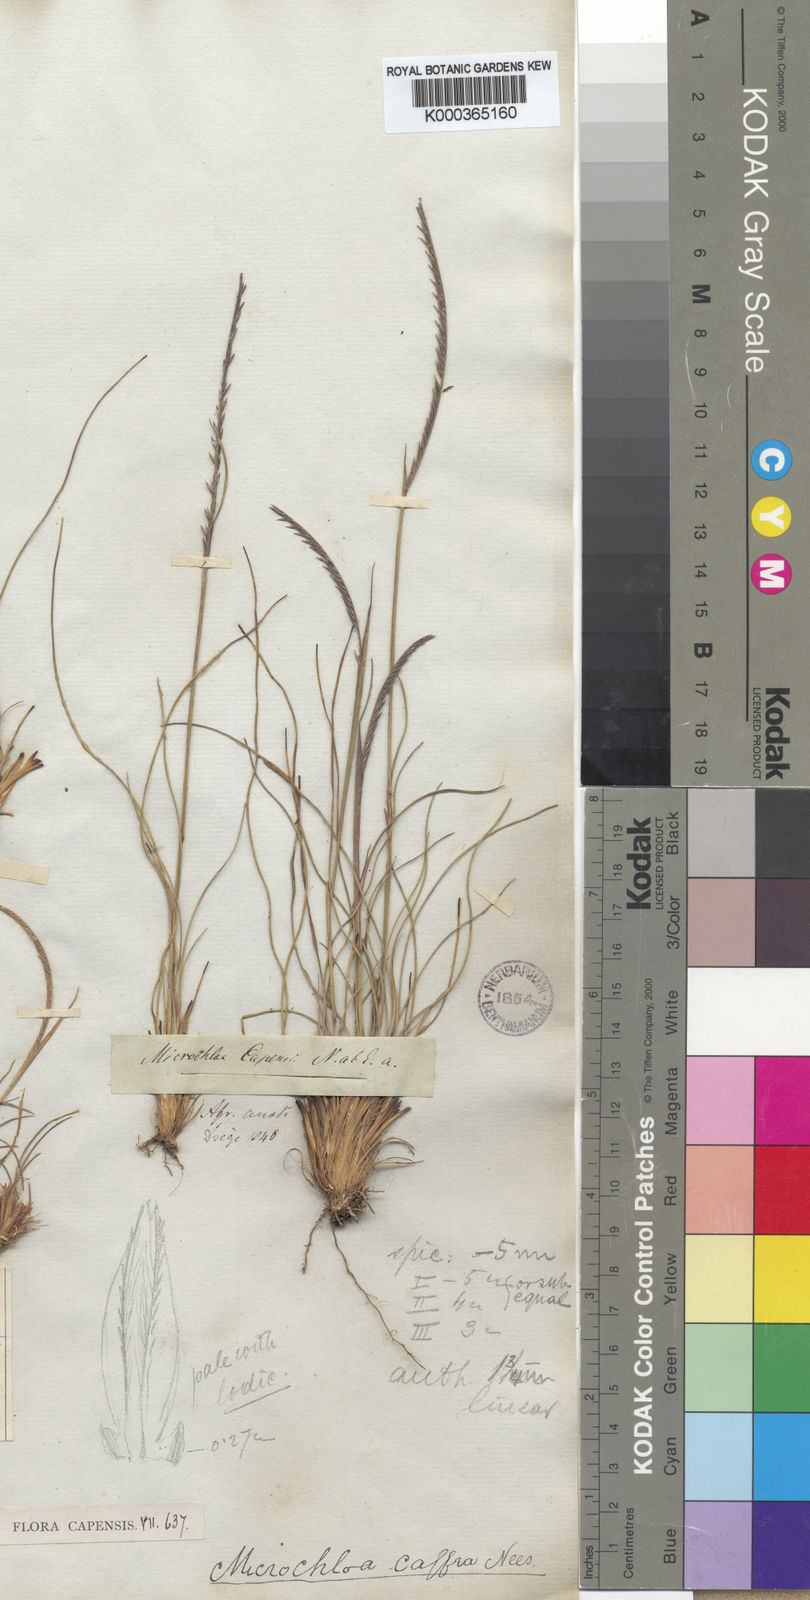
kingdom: Plantae
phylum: Tracheophyta
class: Liliopsida
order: Poales
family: Poaceae
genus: Microchloa
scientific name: Microchloa caffra
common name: Pincushion grass
